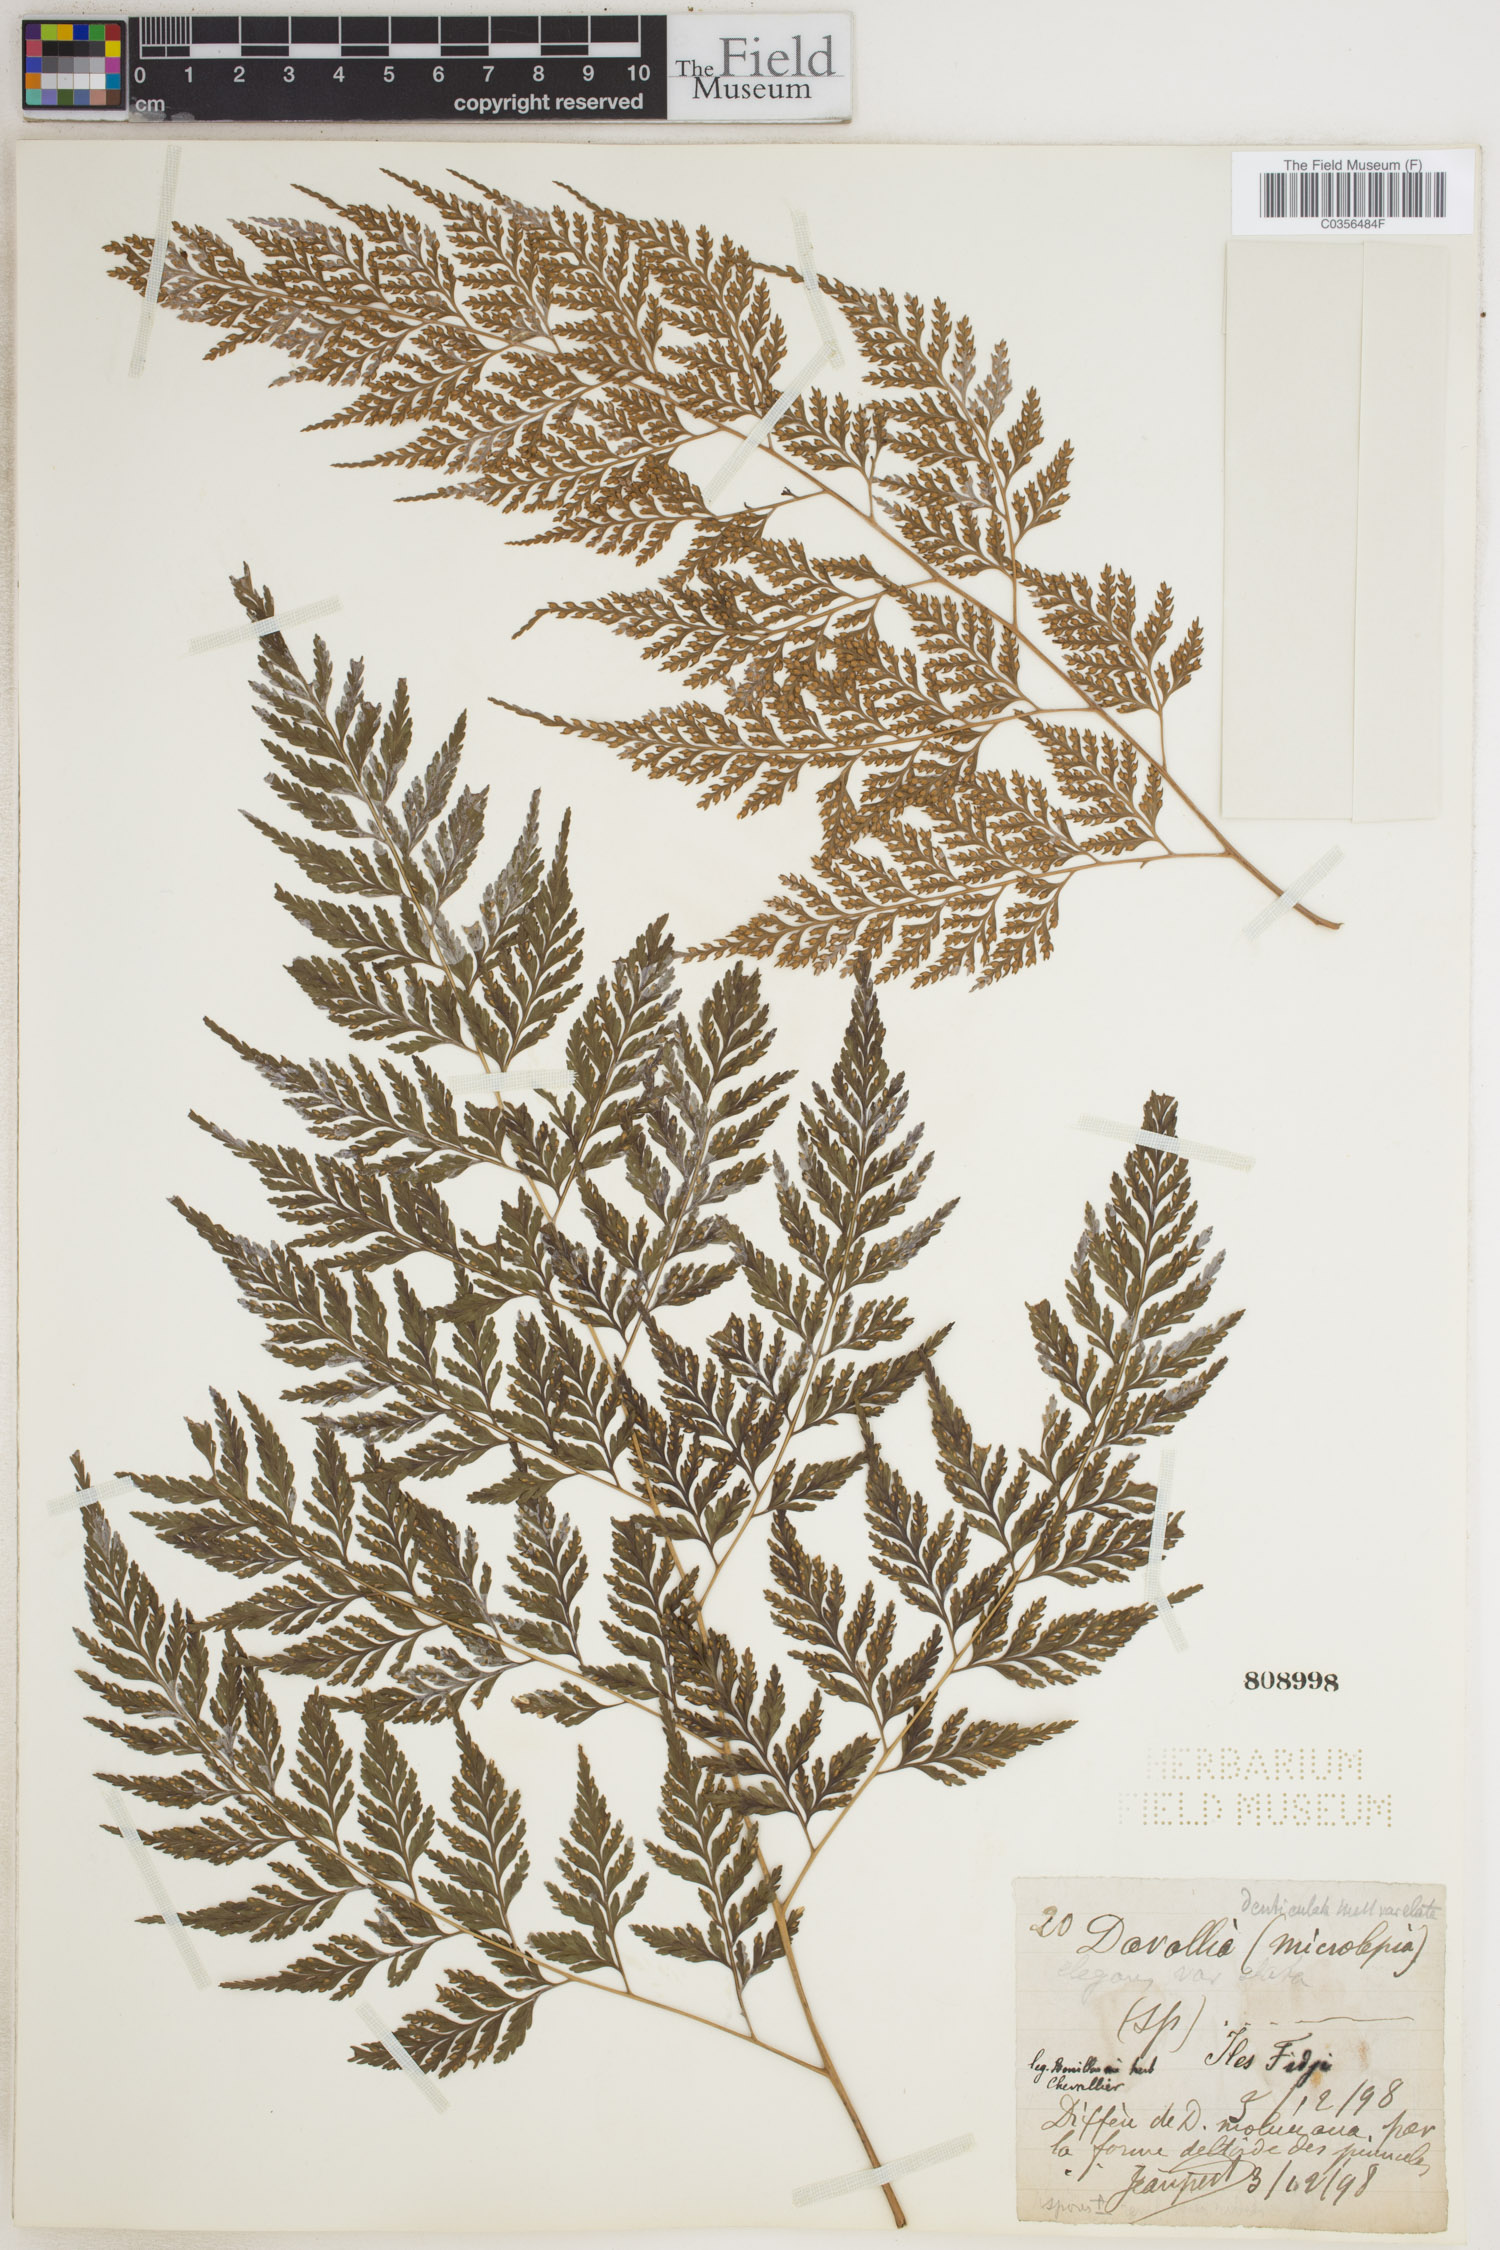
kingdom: Plantae
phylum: Tracheophyta
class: Polypodiopsida
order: Polypodiales
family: Davalliaceae
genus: Davallia
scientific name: Davallia
